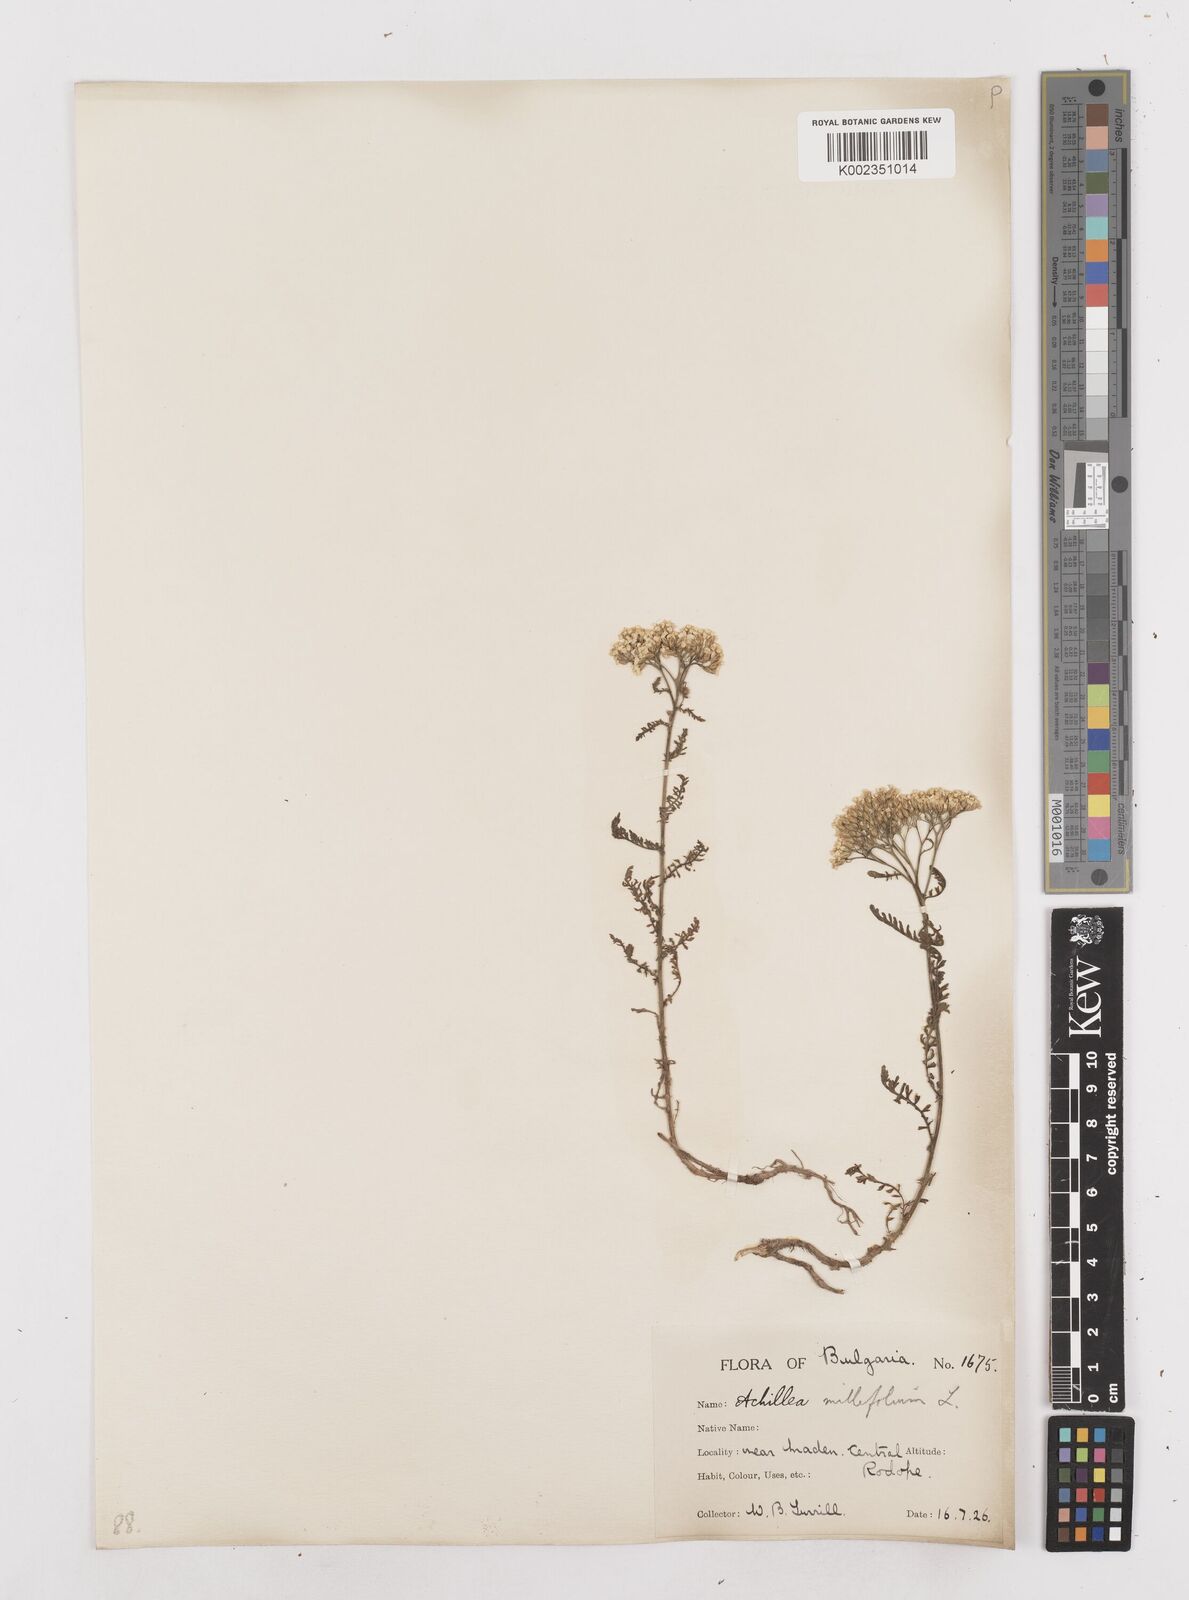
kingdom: Plantae
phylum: Tracheophyta
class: Magnoliopsida
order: Asterales
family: Asteraceae
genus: Achillea
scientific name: Achillea millefolium
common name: Yarrow
